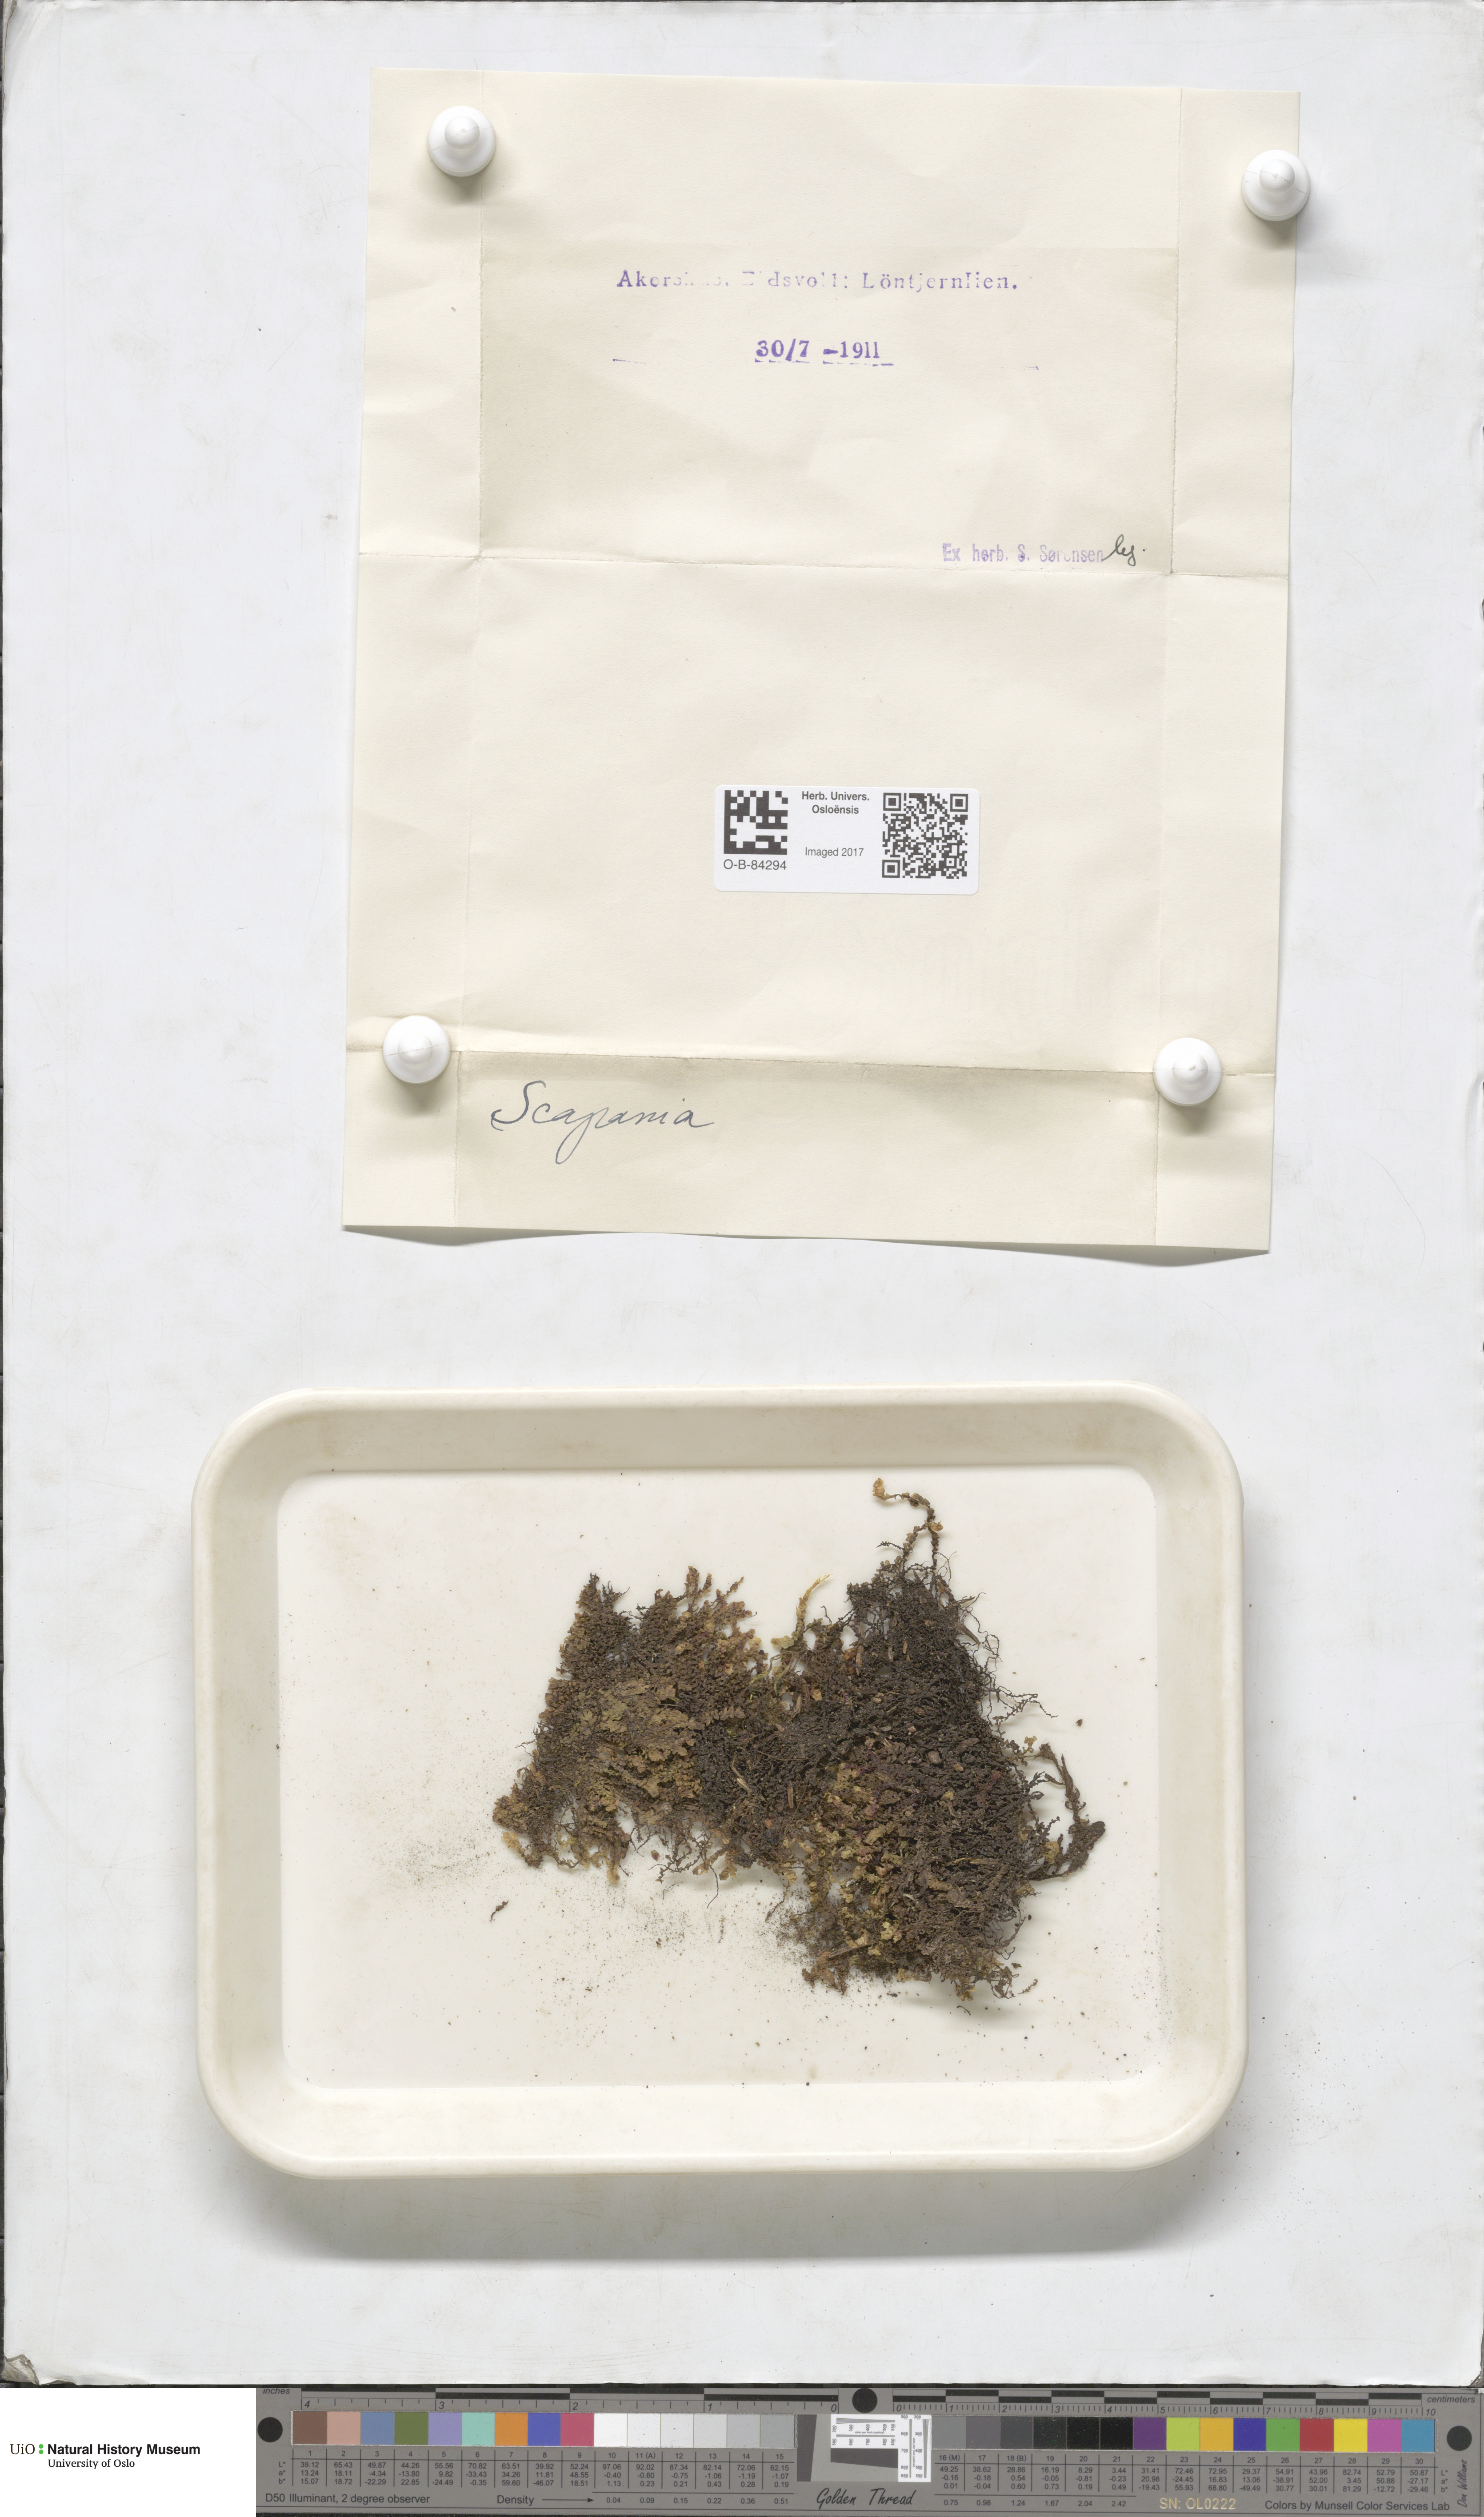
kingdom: Plantae
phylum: Marchantiophyta
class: Jungermanniopsida
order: Jungermanniales
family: Scapaniaceae
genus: Scapania
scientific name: Scapania
